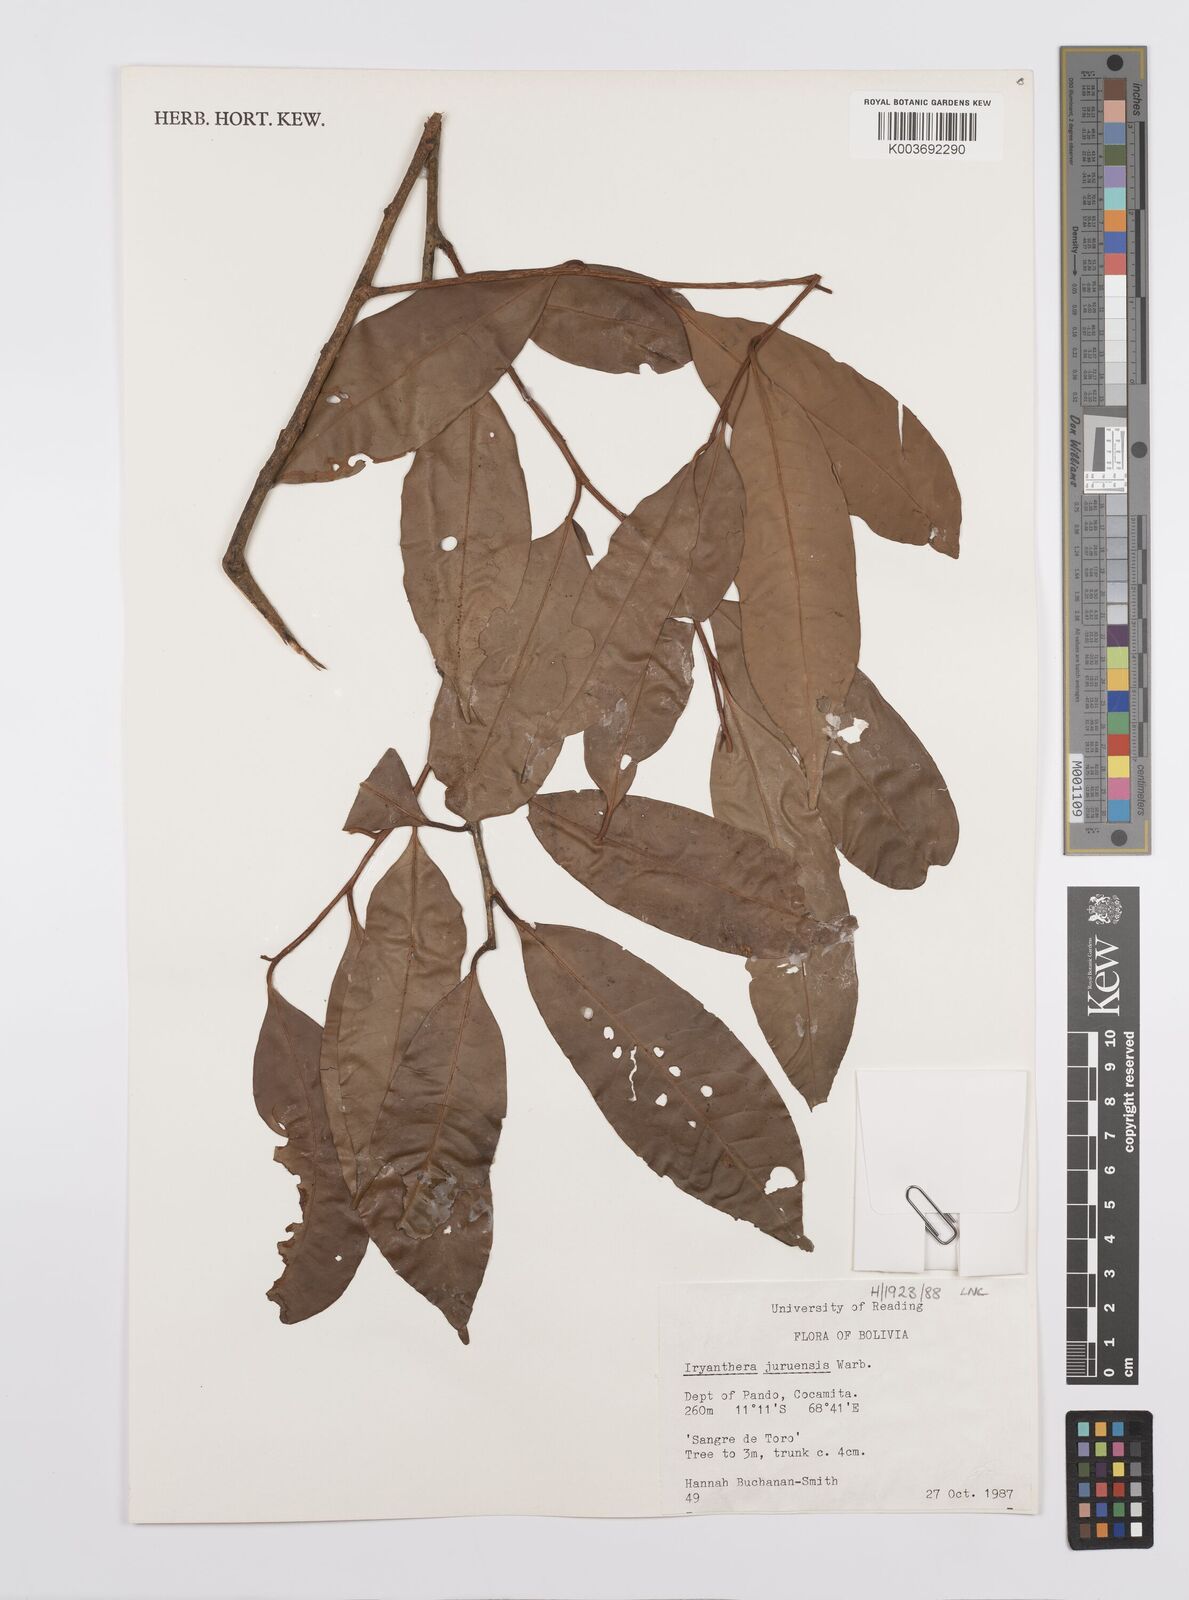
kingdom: Plantae
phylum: Tracheophyta
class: Magnoliopsida
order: Magnoliales
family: Myristicaceae
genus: Iryanthera
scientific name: Iryanthera juruensis
